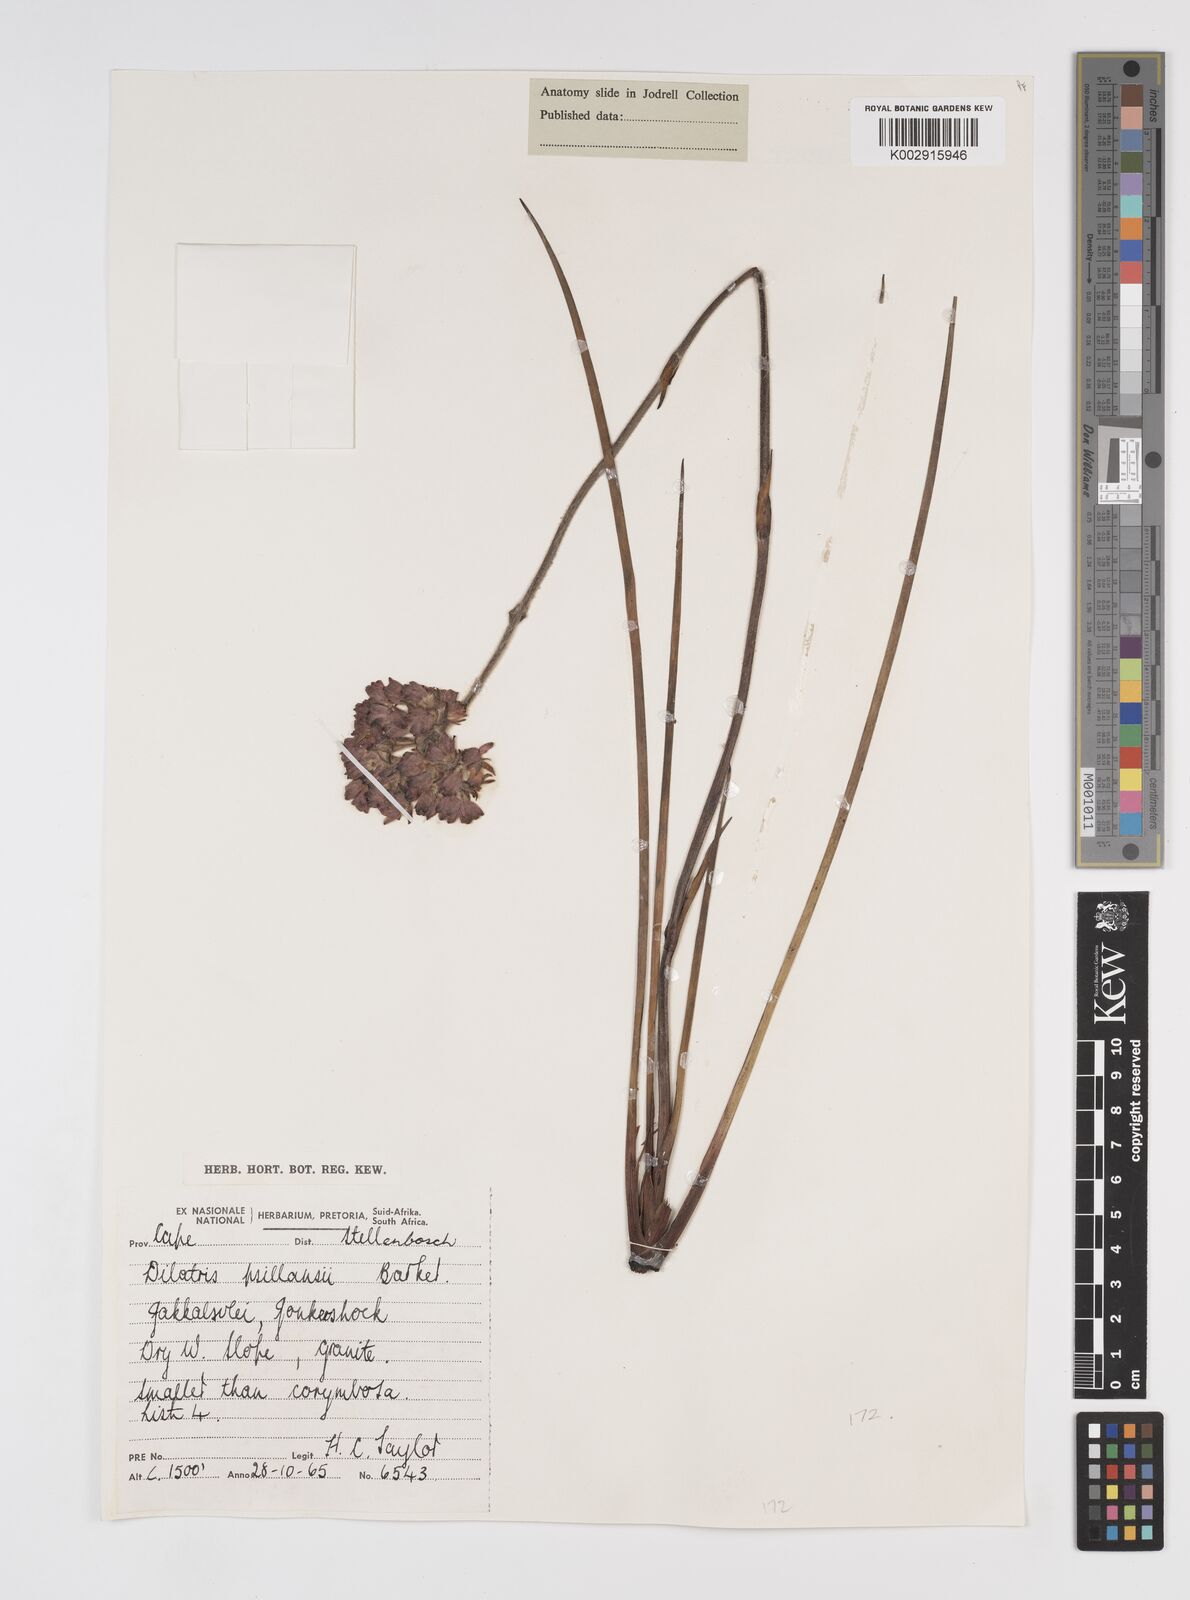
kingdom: Plantae
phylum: Tracheophyta
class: Liliopsida
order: Commelinales
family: Haemodoraceae
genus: Dilatris
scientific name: Dilatris pillansii
